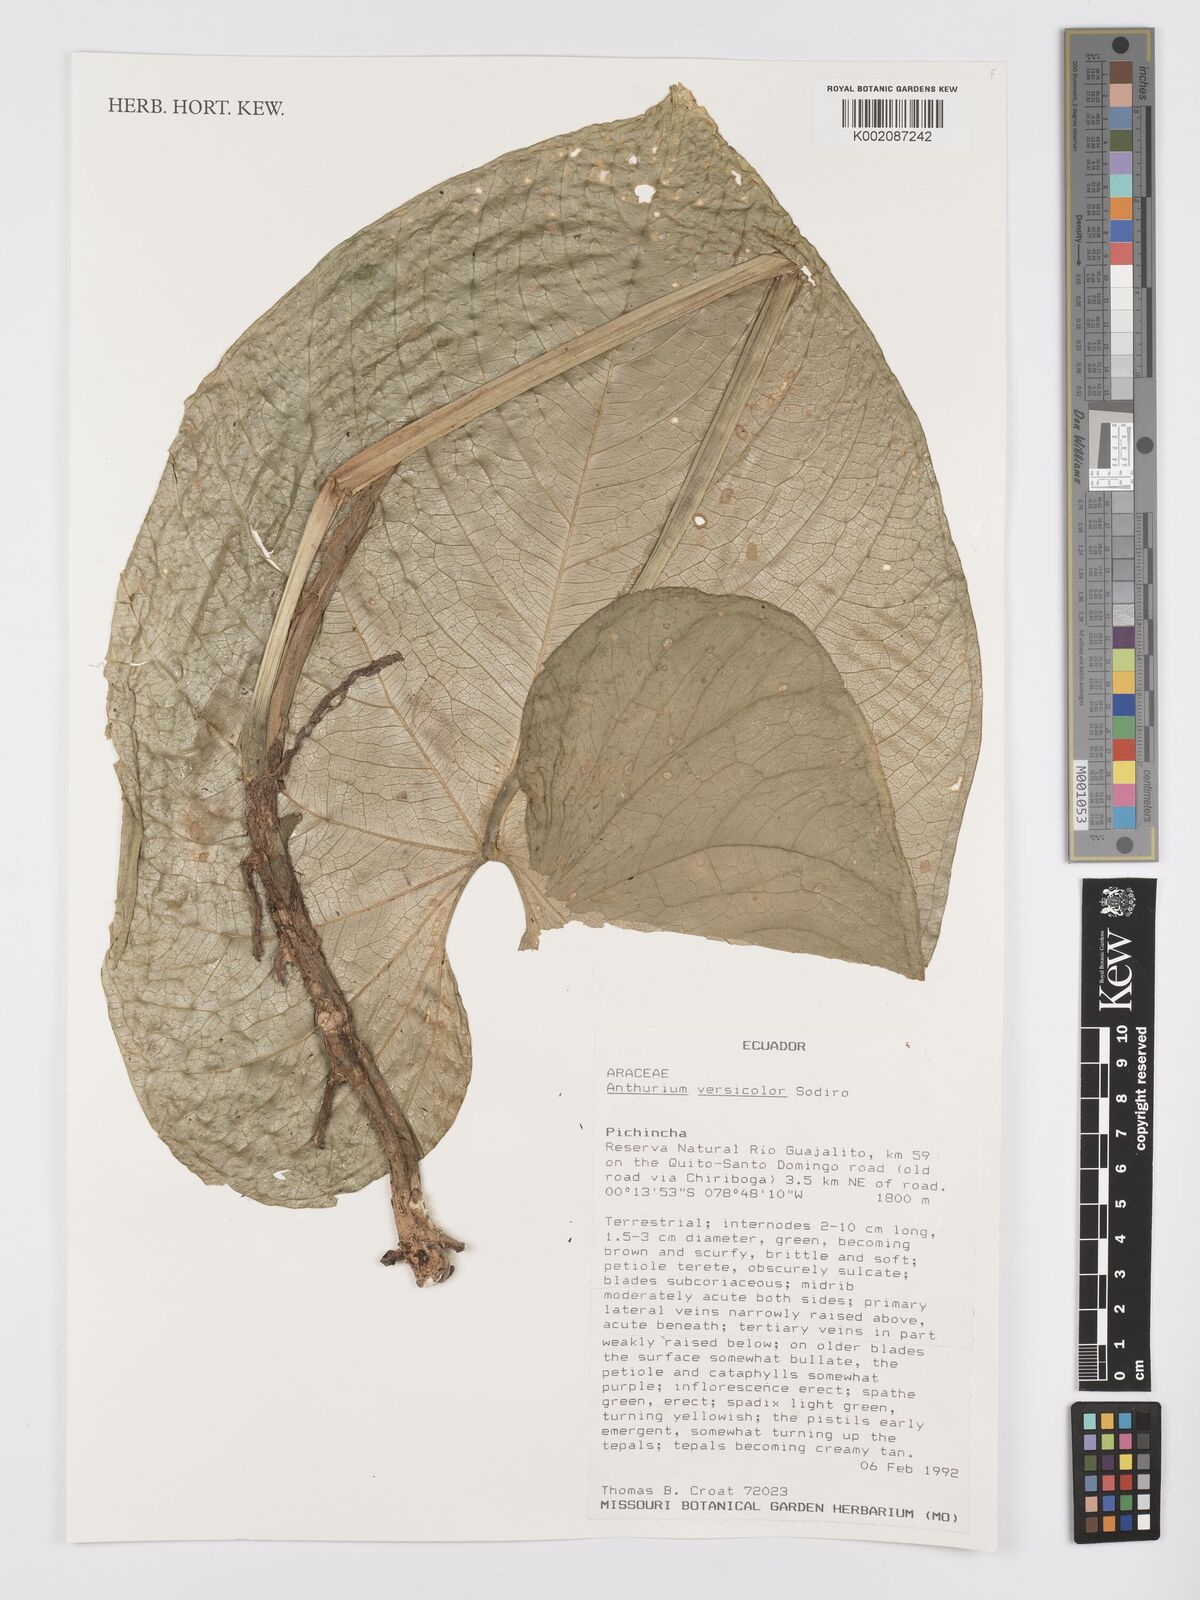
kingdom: Plantae
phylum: Tracheophyta
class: Liliopsida
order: Alismatales
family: Araceae
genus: Anthurium
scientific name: Anthurium versicolor
